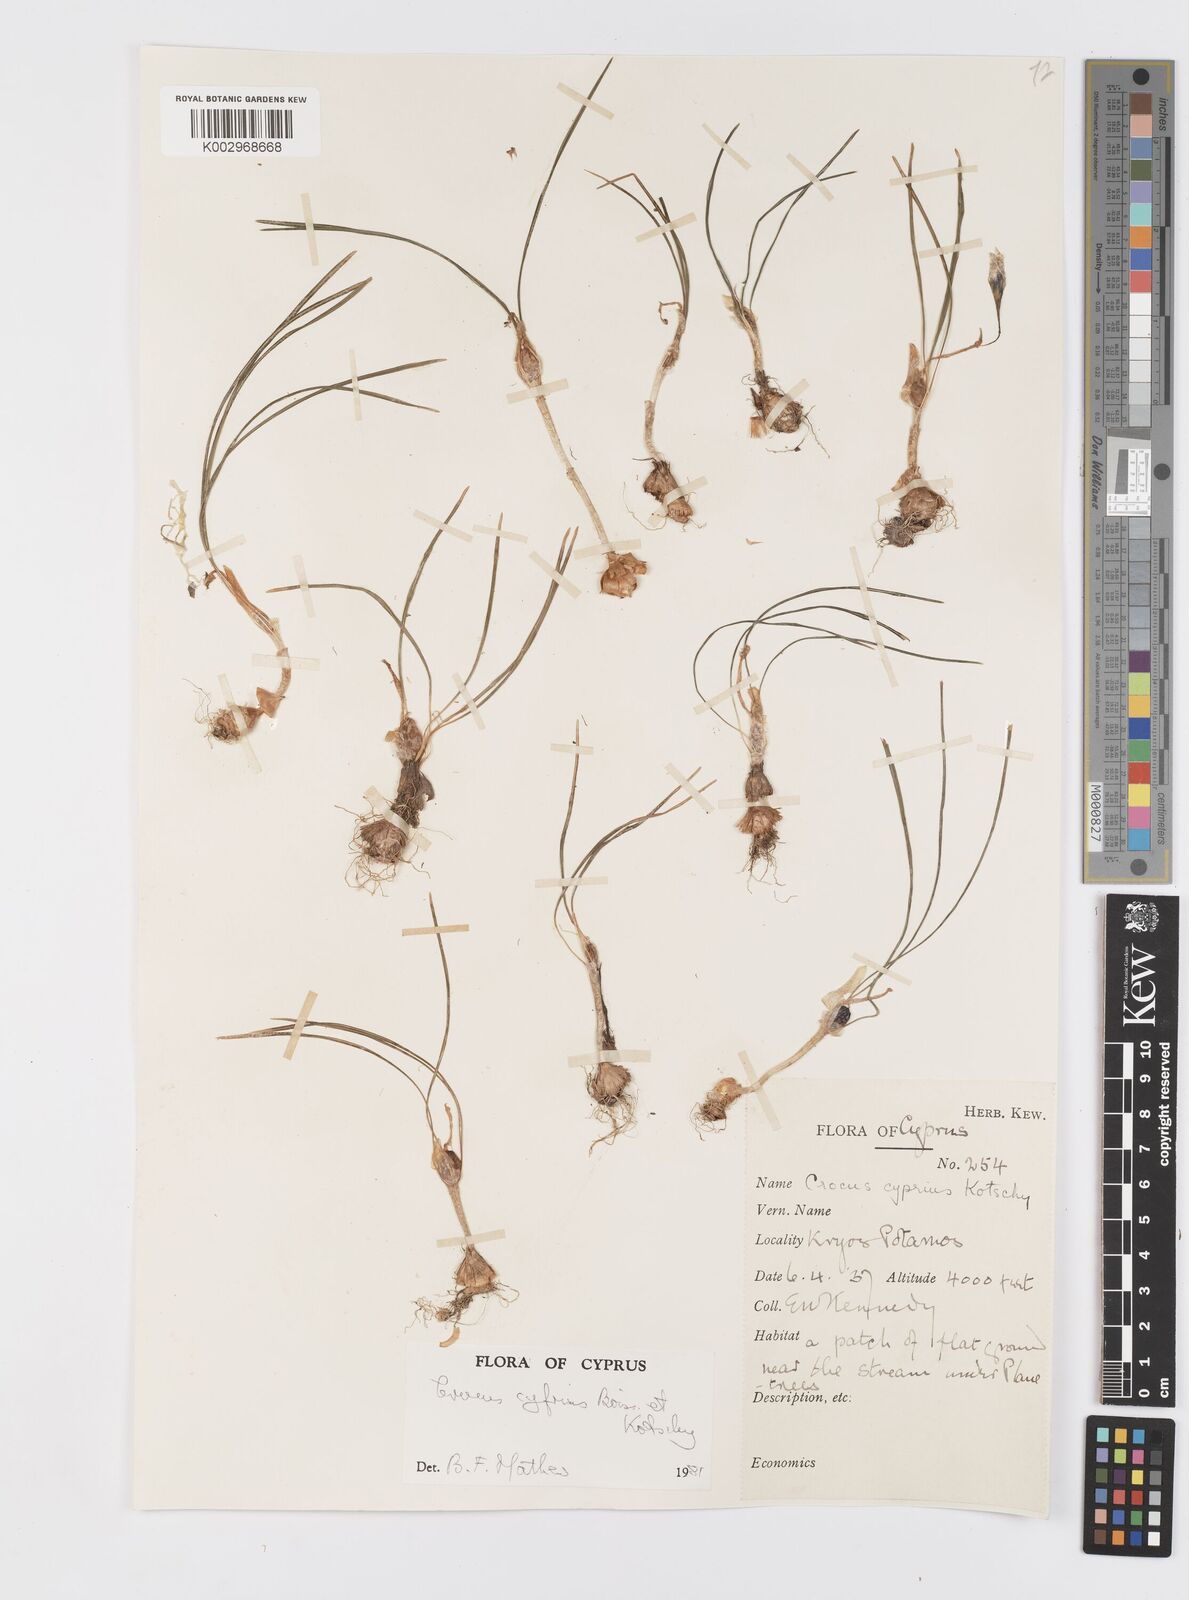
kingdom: Plantae
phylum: Tracheophyta
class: Liliopsida
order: Asparagales
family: Iridaceae
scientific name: Iridaceae
